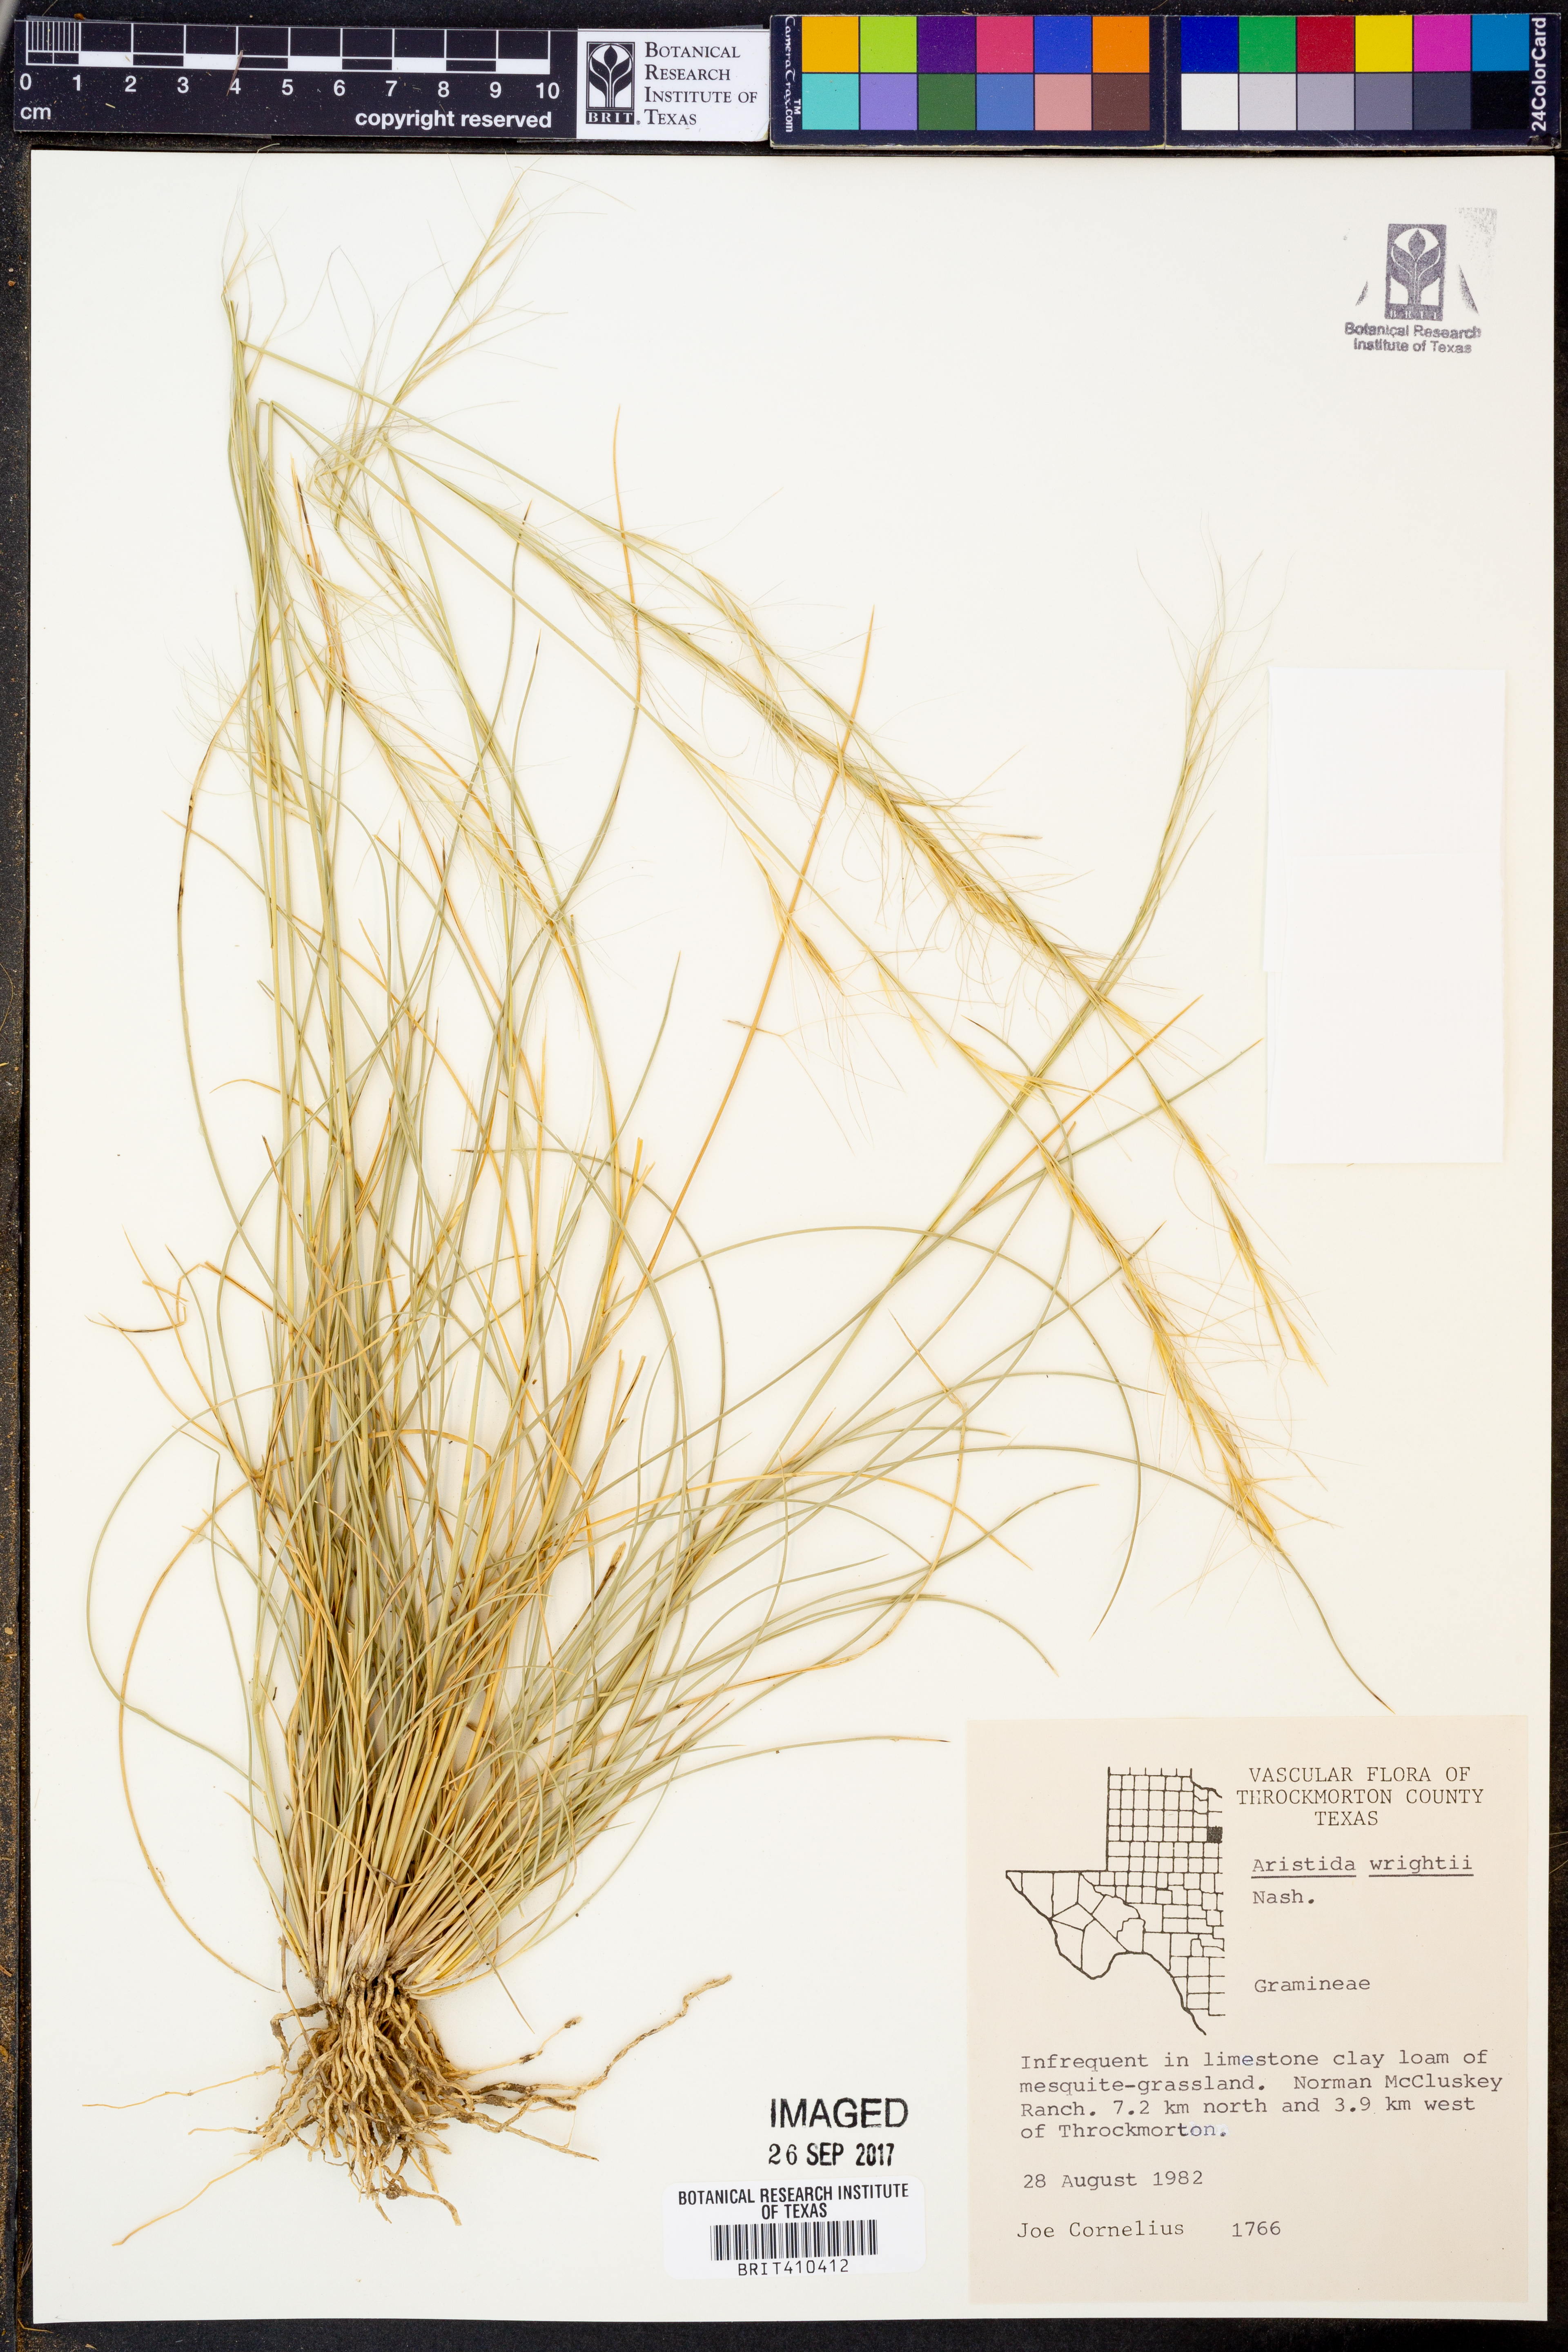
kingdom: Plantae
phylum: Tracheophyta
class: Liliopsida
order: Poales
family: Poaceae
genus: Aristida
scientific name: Aristida wrightii
